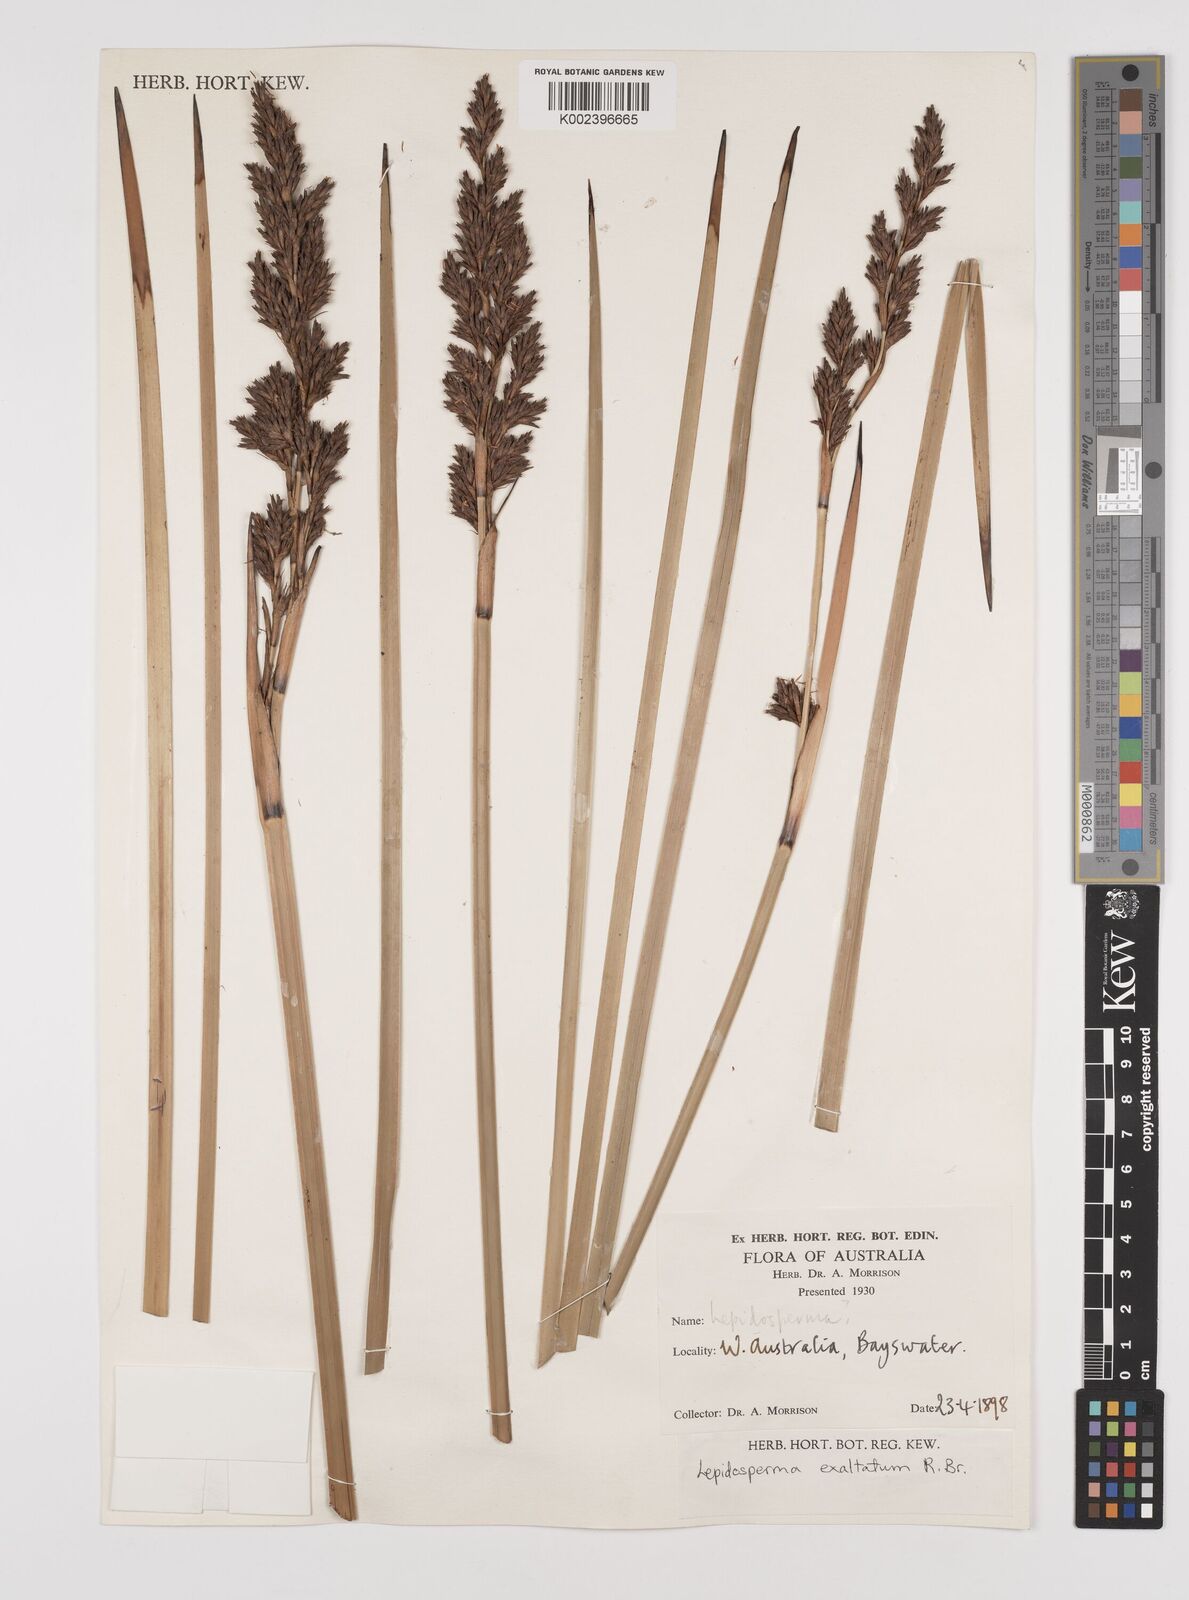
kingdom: Plantae
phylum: Tracheophyta
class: Liliopsida
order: Poales
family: Cyperaceae
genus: Lepidosperma
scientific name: Lepidosperma longitudinale
